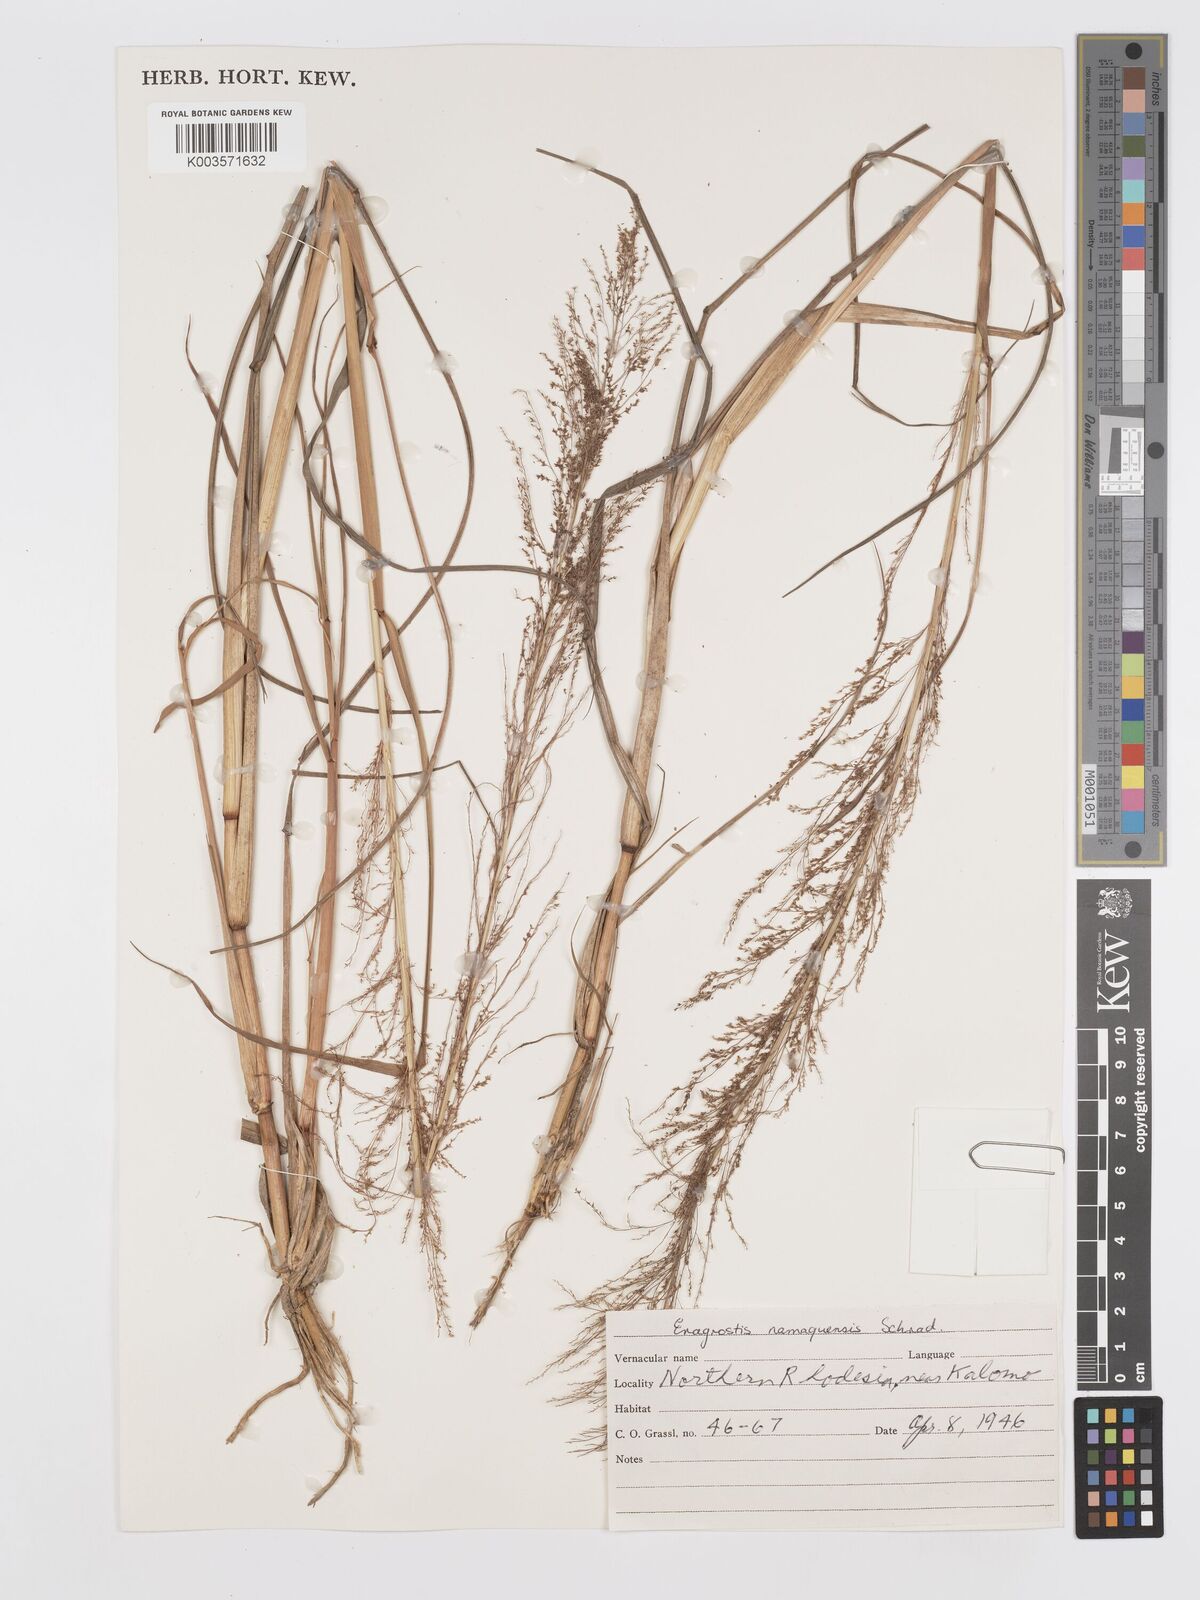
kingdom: Plantae
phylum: Tracheophyta
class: Liliopsida
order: Poales
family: Poaceae
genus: Eragrostis
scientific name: Eragrostis japonica
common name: Pond lovegrass
